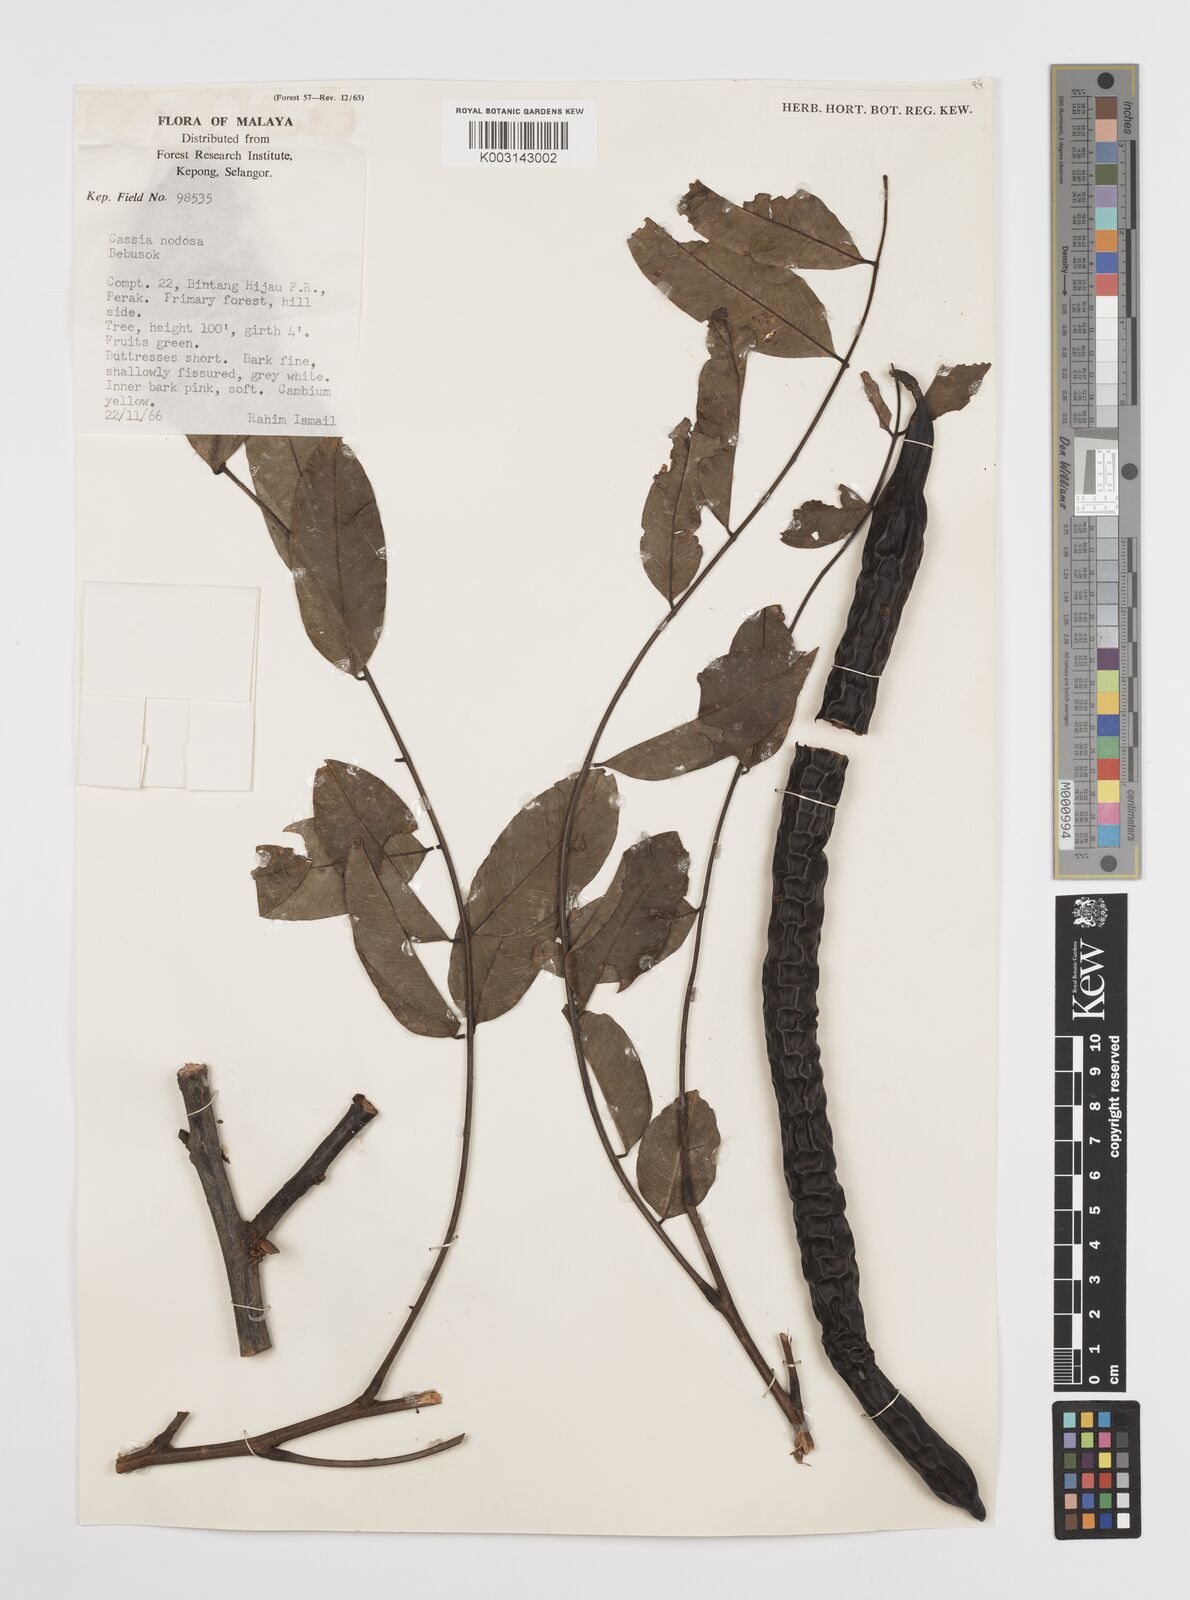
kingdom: Plantae
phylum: Tracheophyta
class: Magnoliopsida
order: Fabales
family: Fabaceae
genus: Cassia
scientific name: Cassia javanica
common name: Apple blossom
